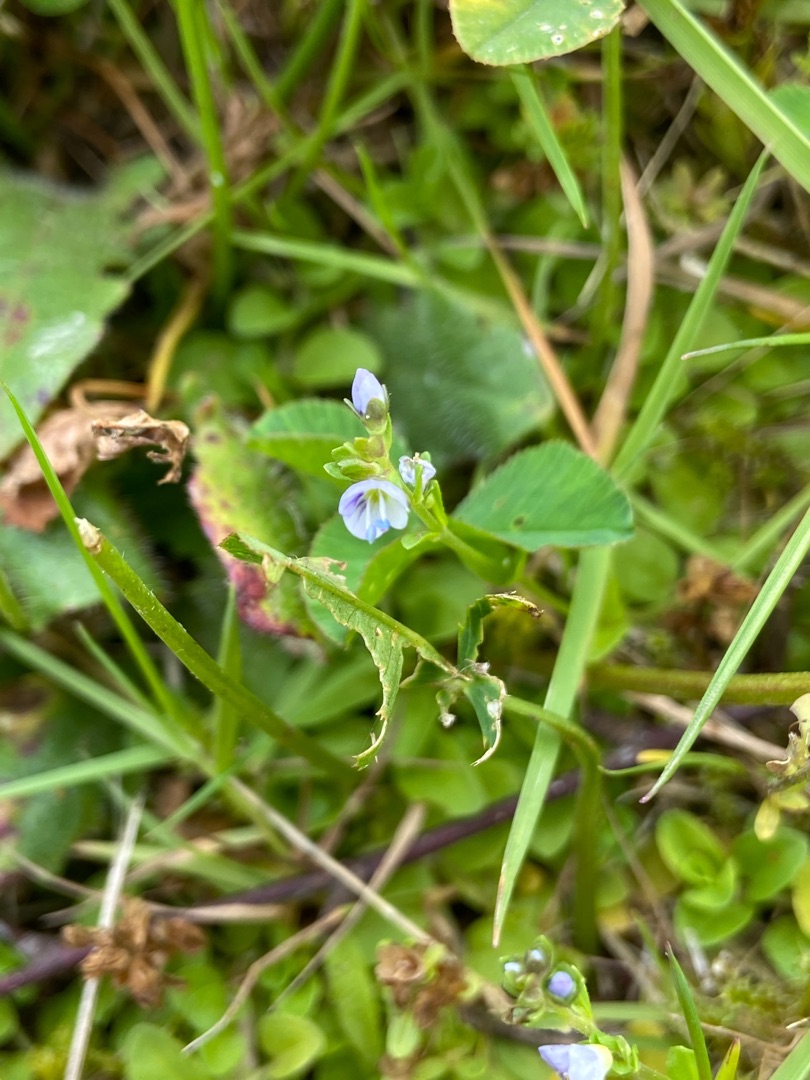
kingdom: Plantae
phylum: Tracheophyta
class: Magnoliopsida
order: Lamiales
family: Plantaginaceae
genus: Veronica
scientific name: Veronica serpyllifolia
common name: Glat ærenpris
